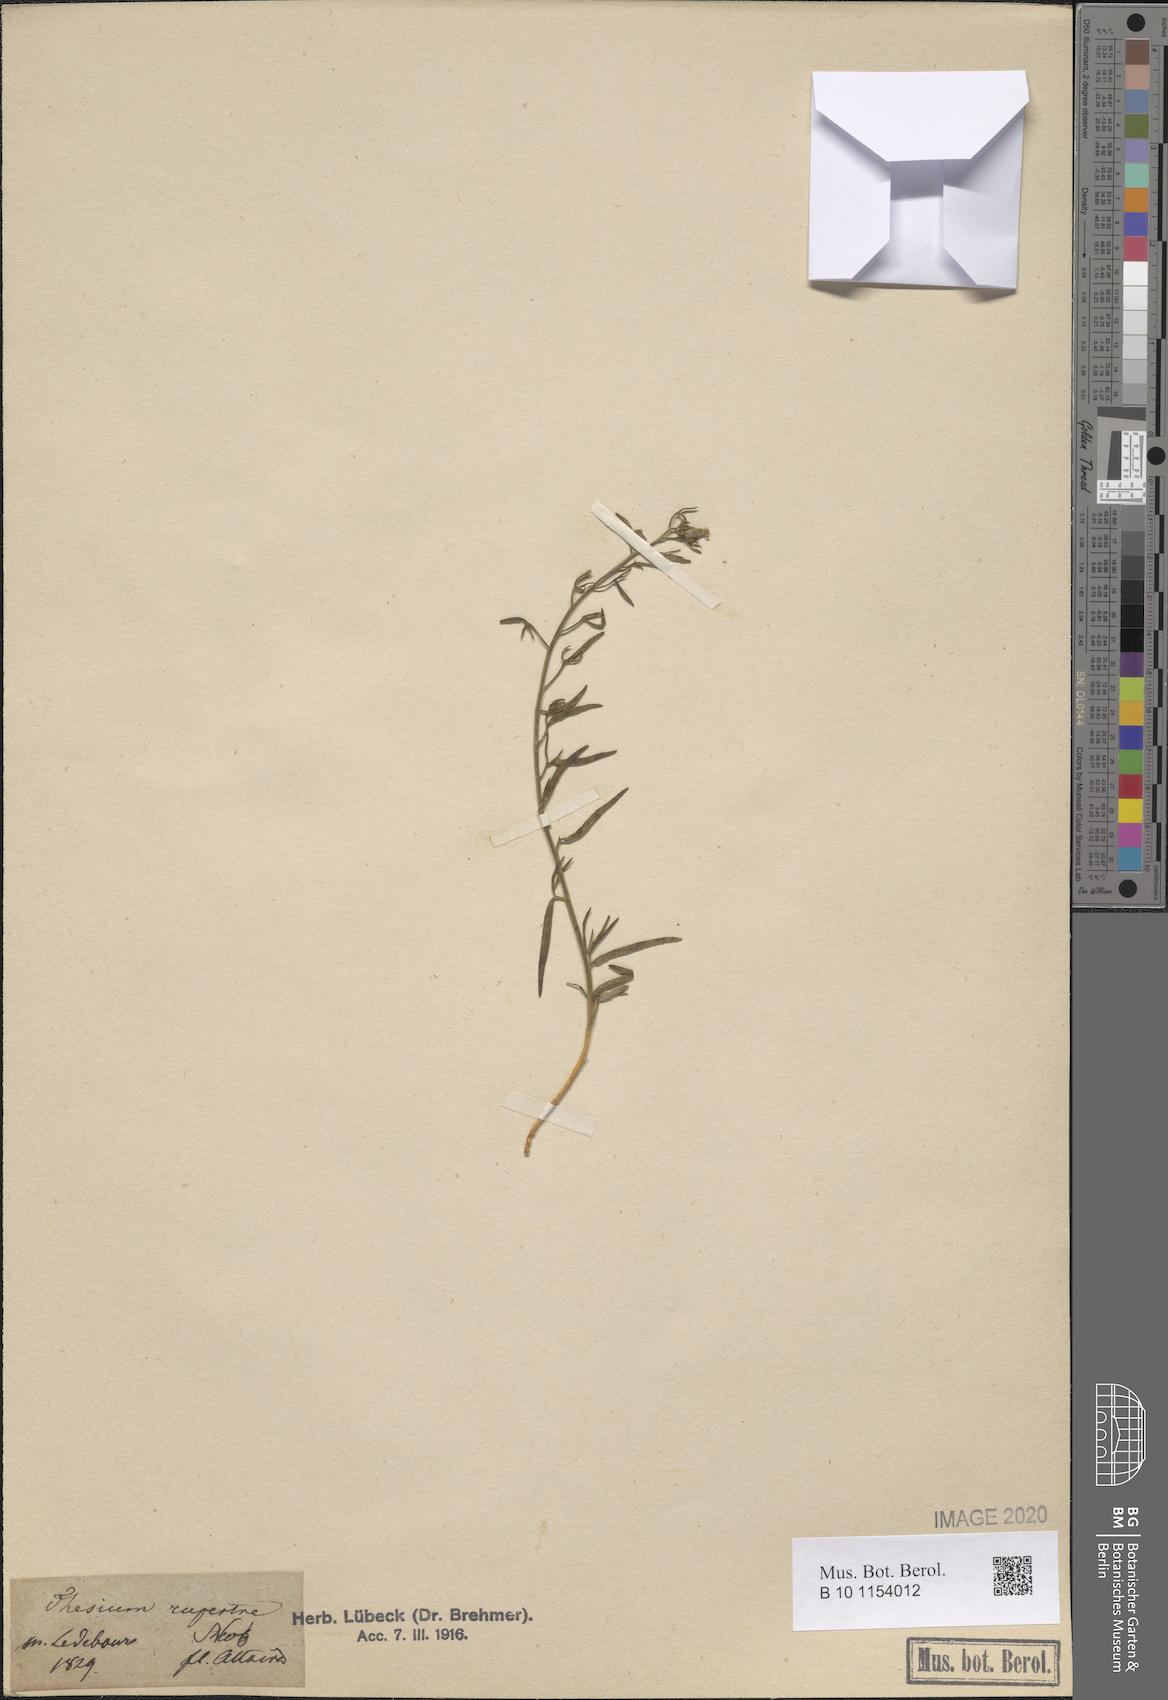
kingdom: Plantae
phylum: Tracheophyta
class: Magnoliopsida
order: Santalales
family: Thesiaceae
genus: Thesium
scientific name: Thesium rupestre
